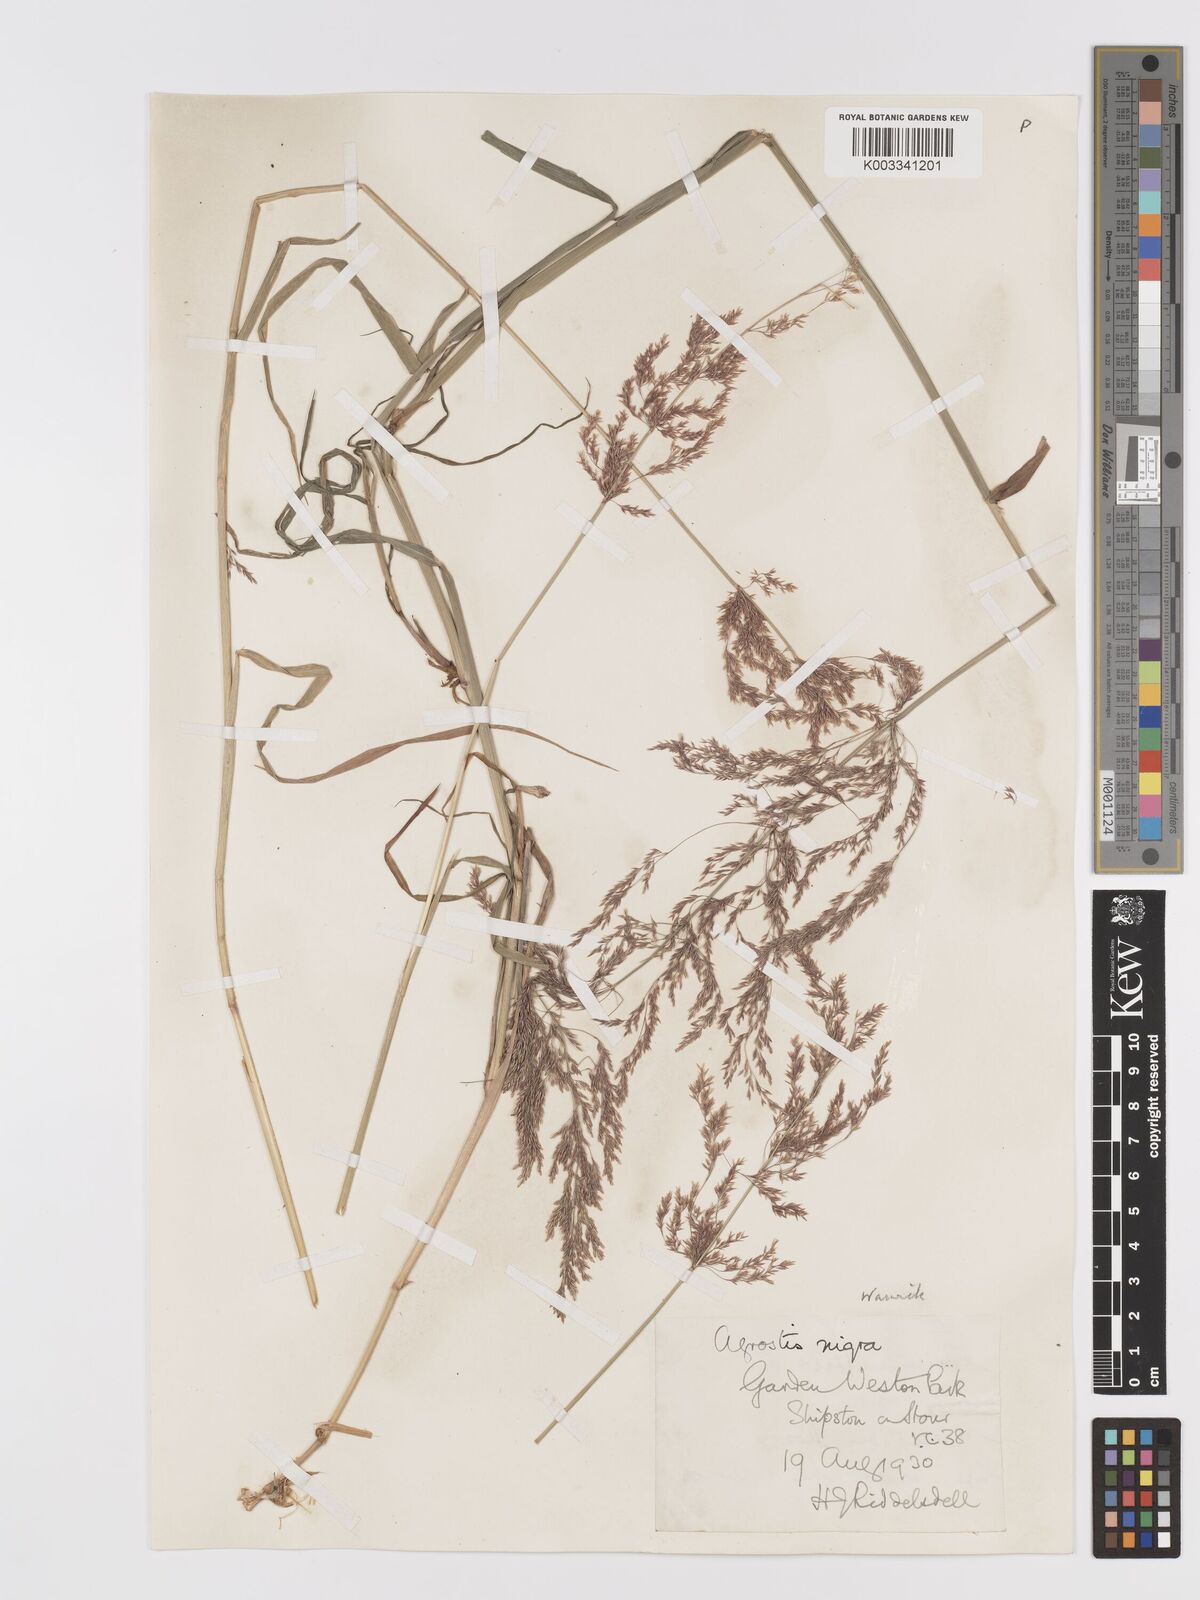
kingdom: Plantae
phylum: Tracheophyta
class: Liliopsida
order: Poales
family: Poaceae
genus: Agrostis
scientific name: Agrostis gigantea
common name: Black bent
